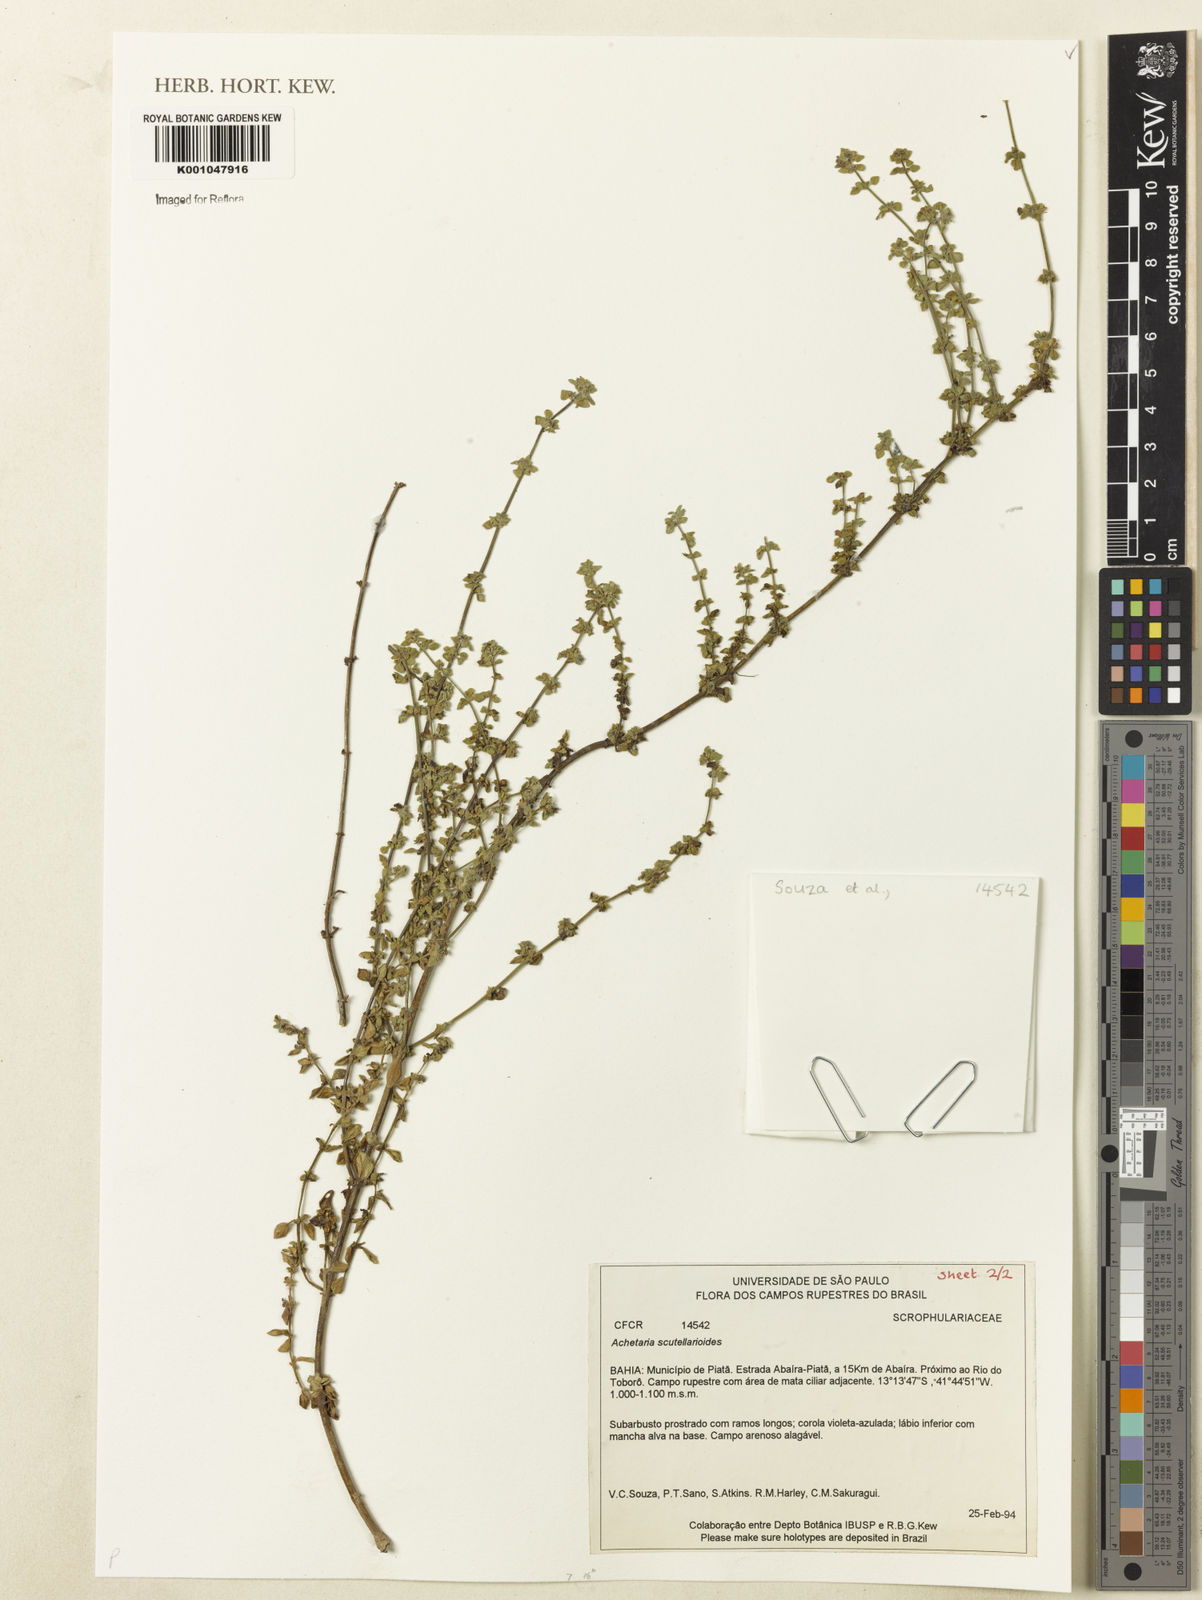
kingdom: Plantae
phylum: Tracheophyta
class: Magnoliopsida
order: Lamiales
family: Plantaginaceae
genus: Matourea
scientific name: Matourea scutellarioides
